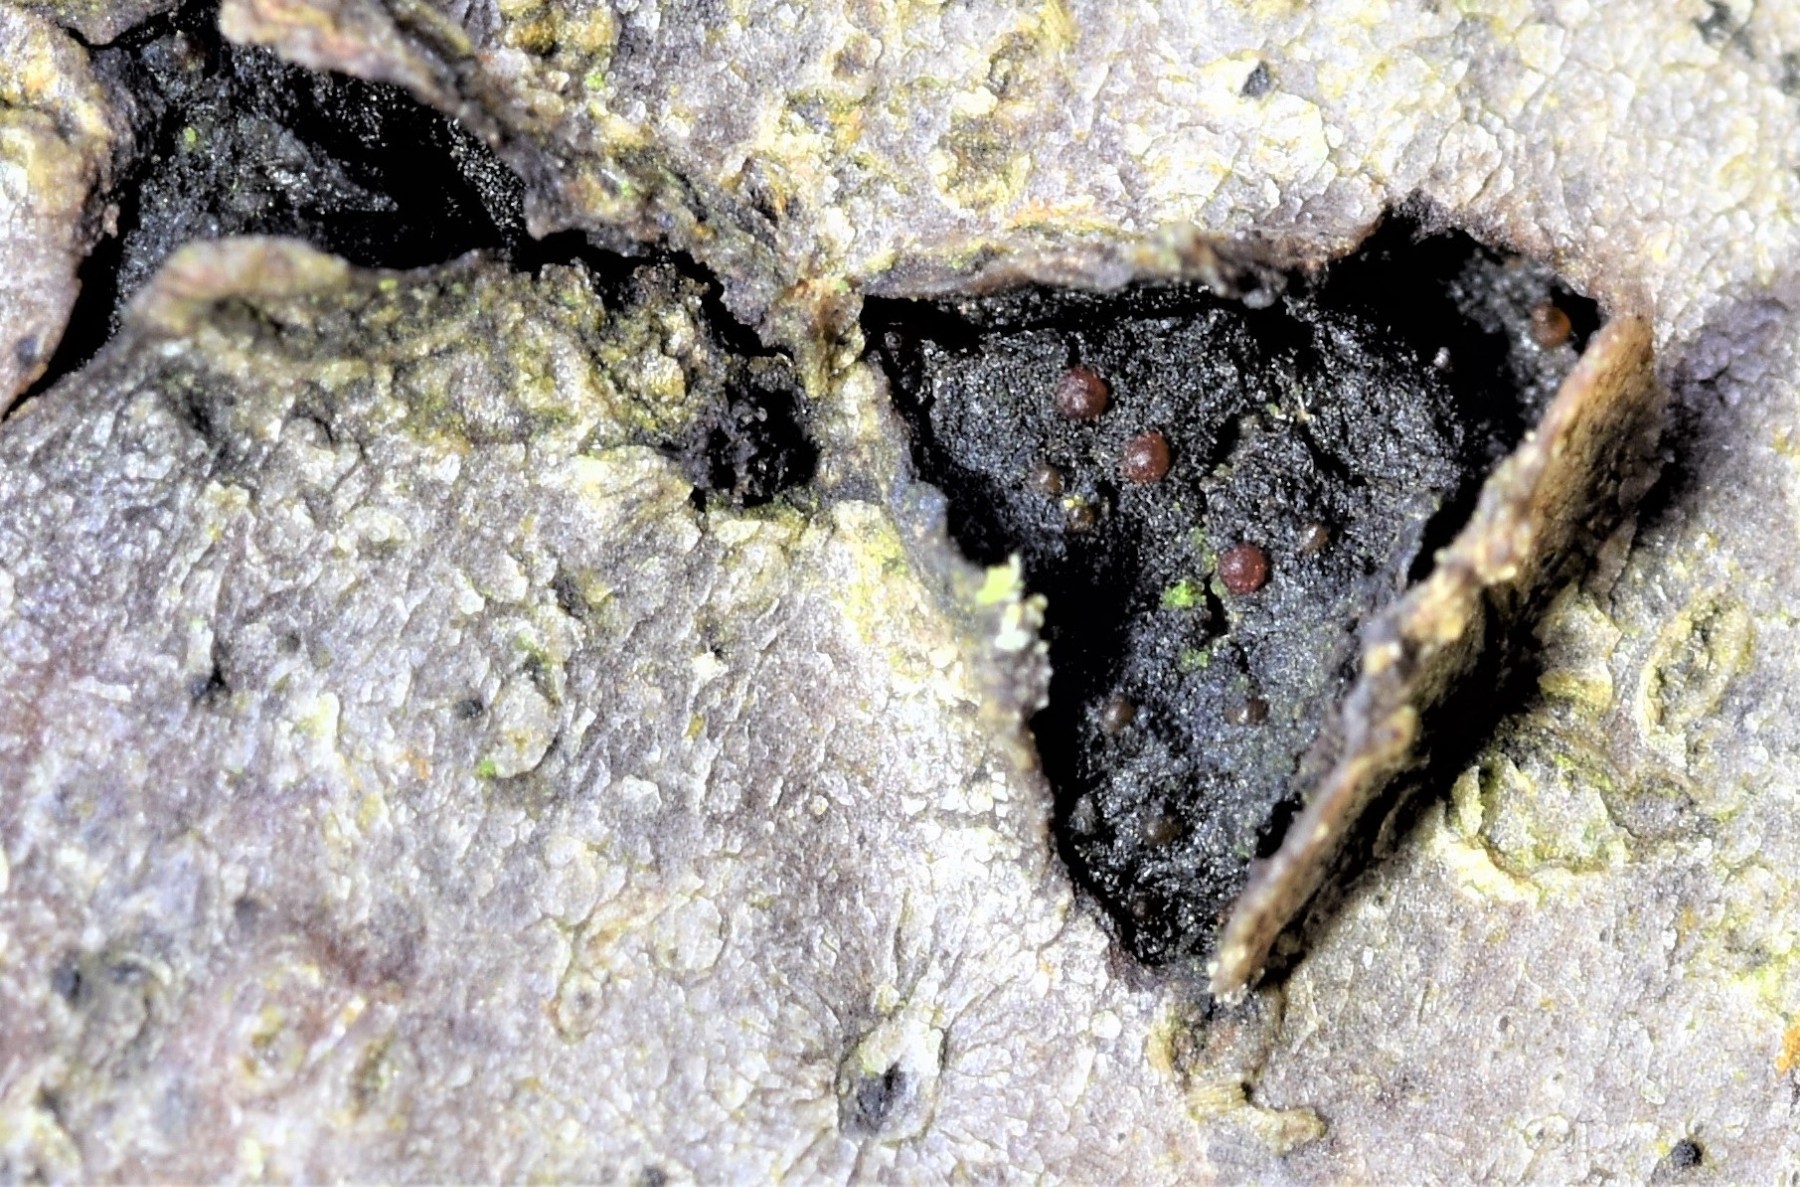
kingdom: Fungi
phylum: Ascomycota
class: Sordariomycetes
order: Hypocreales
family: Nectriaceae
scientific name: Nectriaceae
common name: cinnobersvampfamilien
